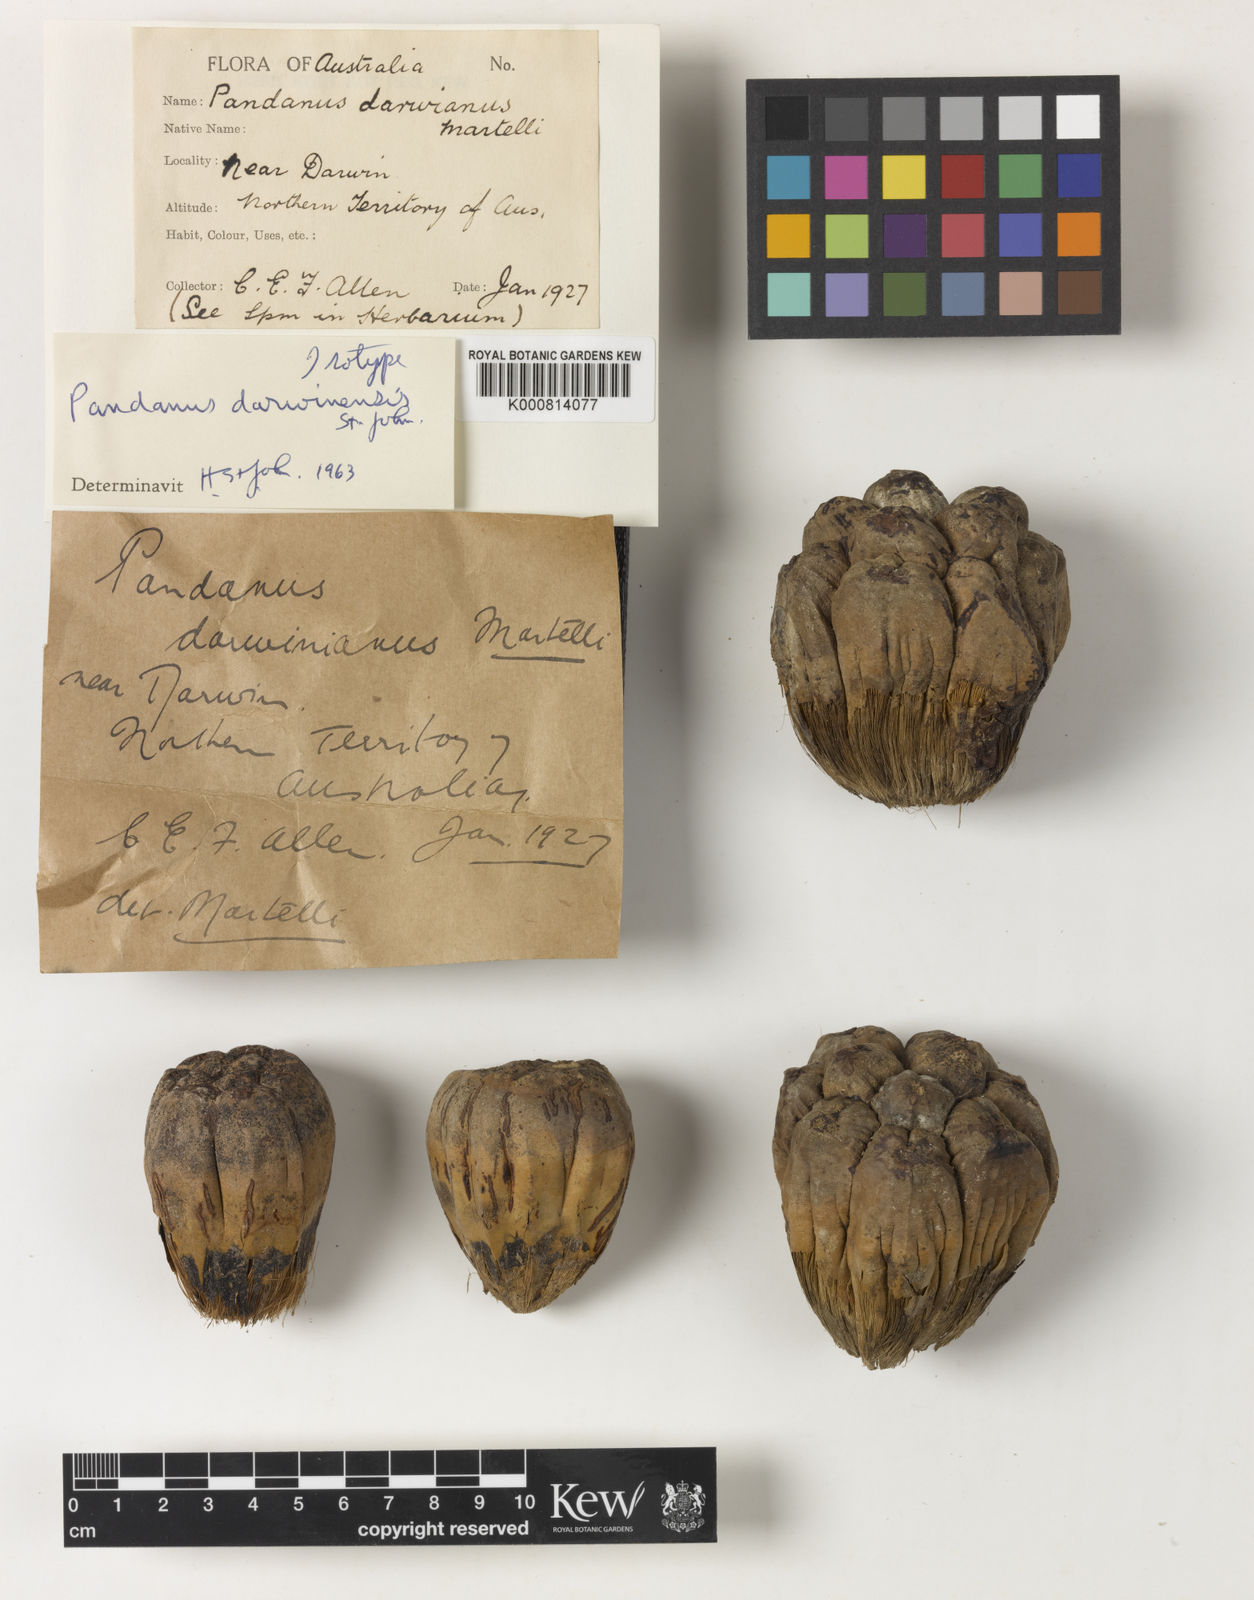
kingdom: Plantae
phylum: Tracheophyta
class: Liliopsida
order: Pandanales
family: Pandanaceae
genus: Pandanus
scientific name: Pandanus darwinensis
